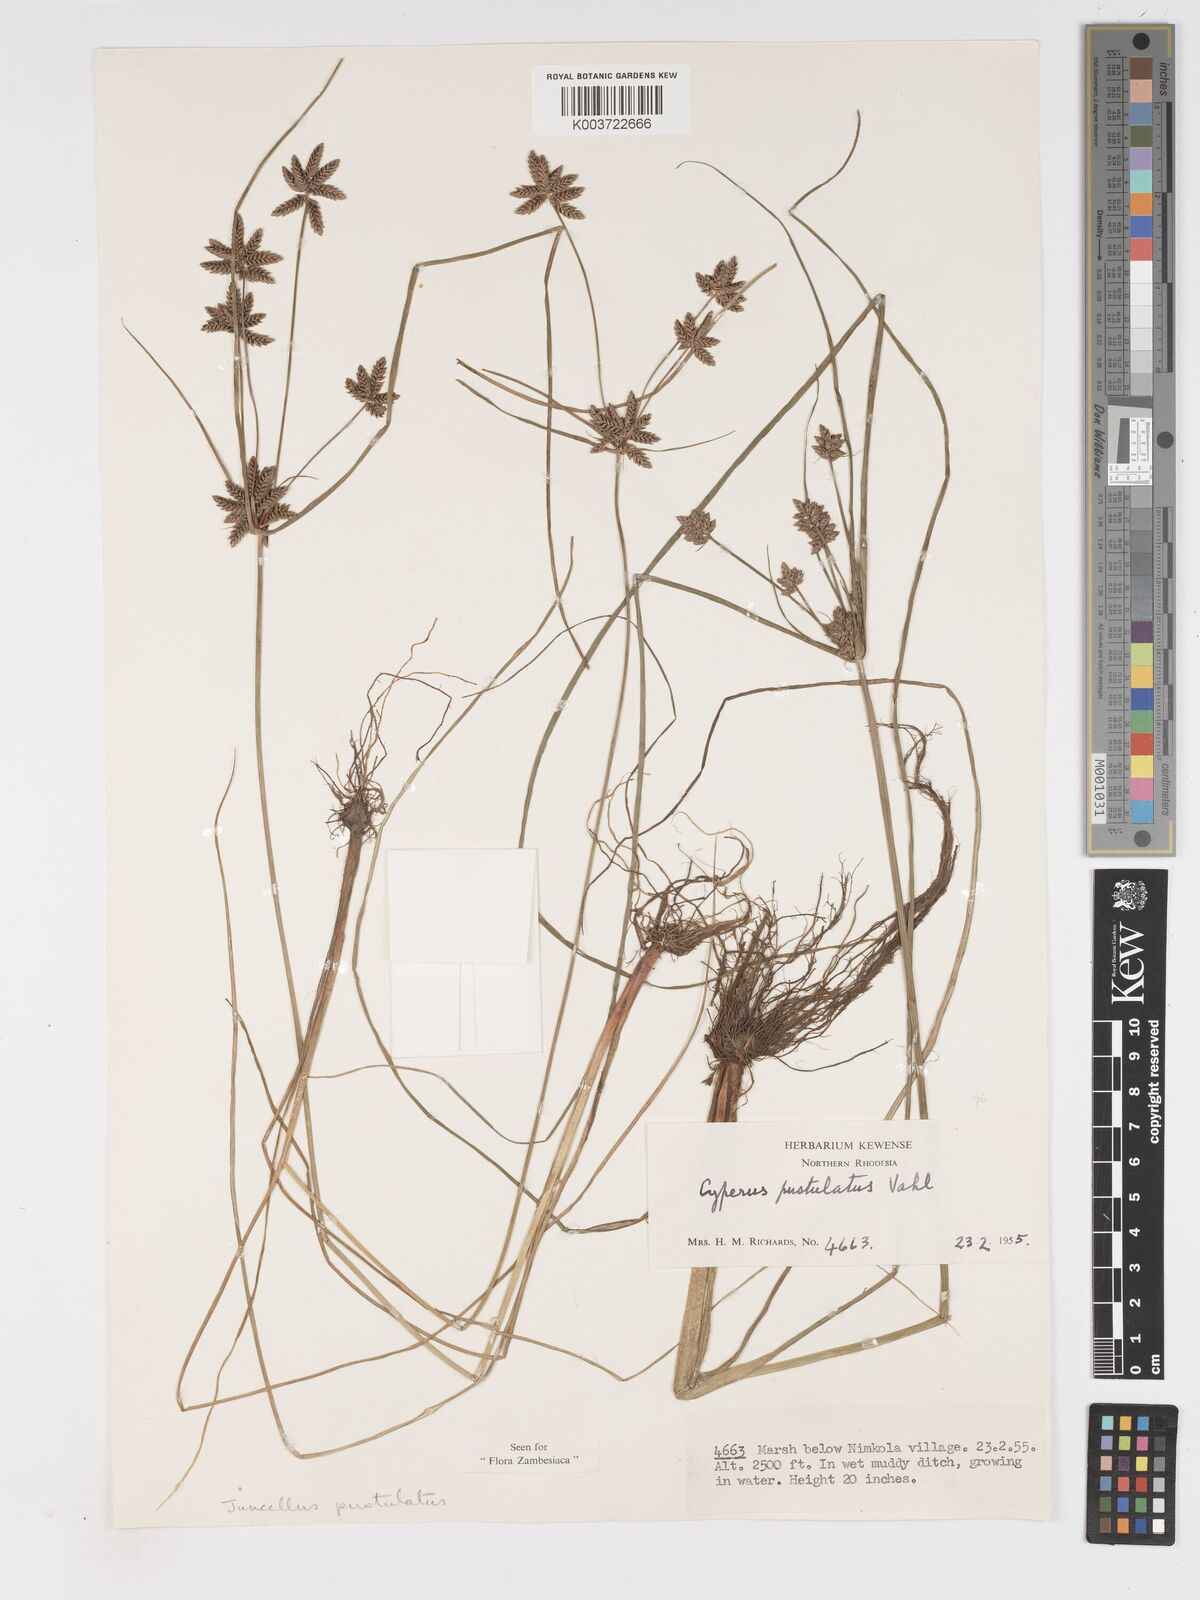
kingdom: Plantae
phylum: Tracheophyta
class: Liliopsida
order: Poales
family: Cyperaceae
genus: Cyperus
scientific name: Cyperus pustulatus
